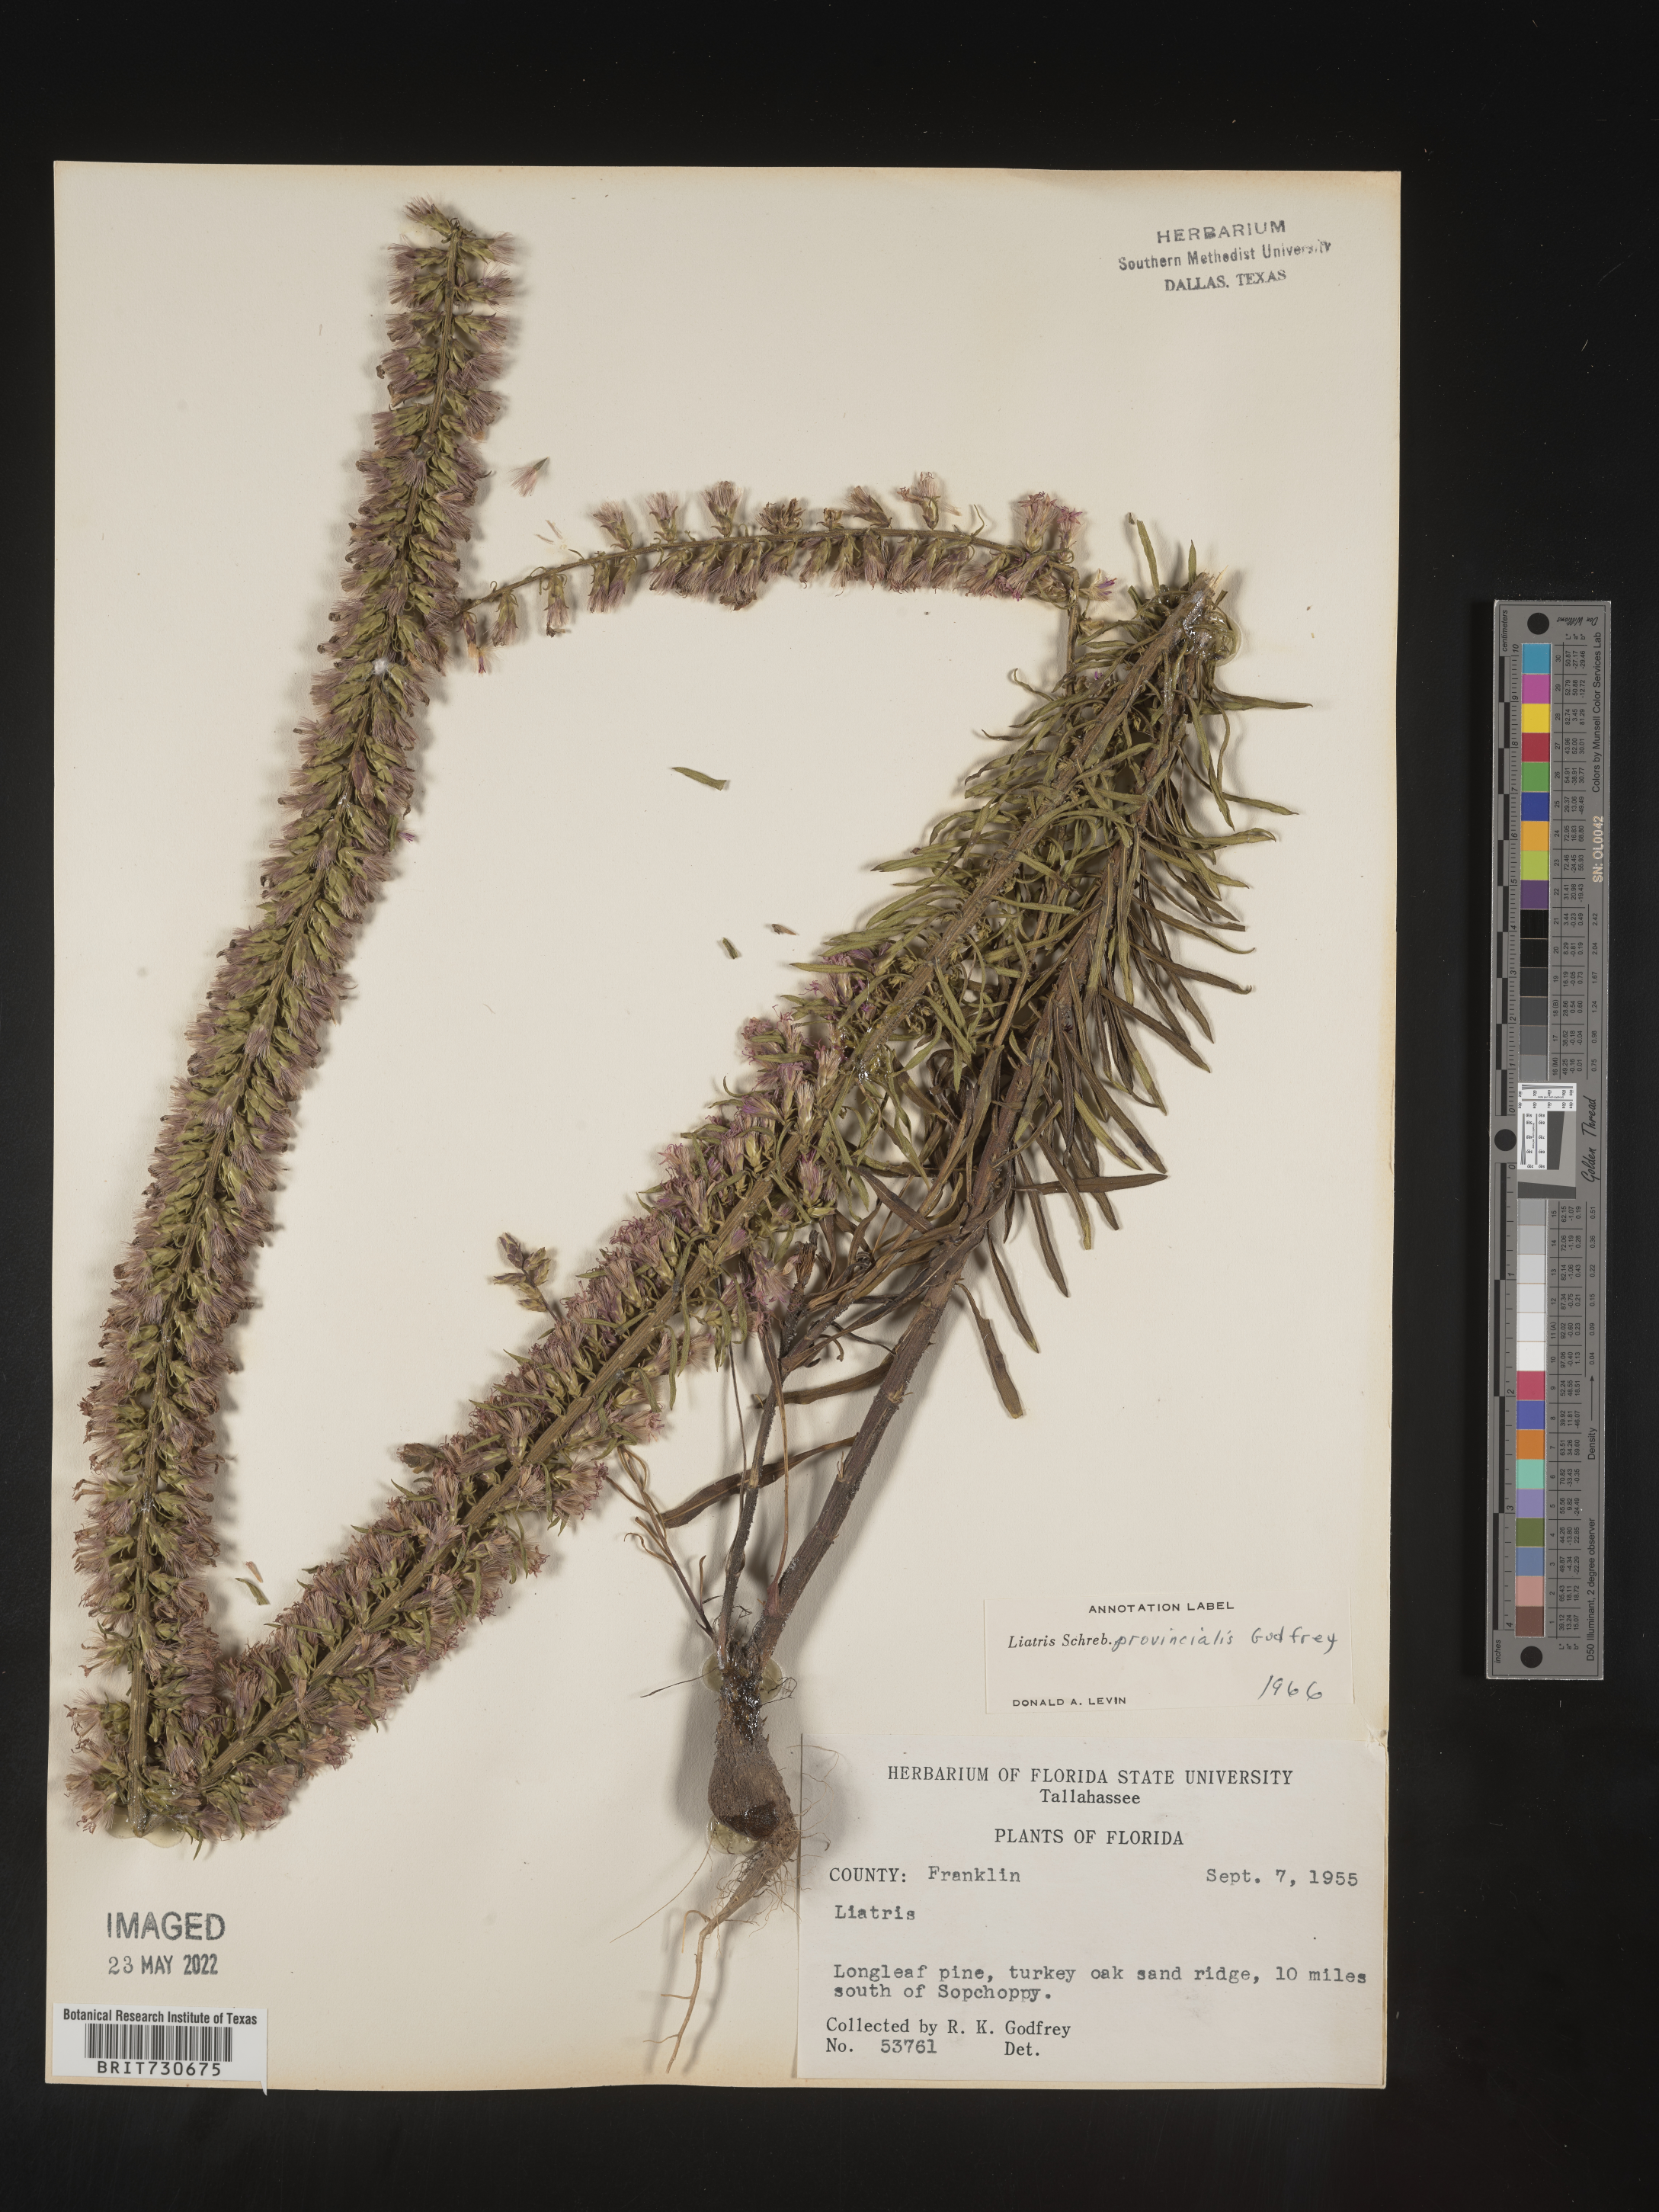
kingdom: Plantae
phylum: Tracheophyta
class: Magnoliopsida
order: Asterales
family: Asteraceae
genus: Liatris
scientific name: Liatris provincialis
